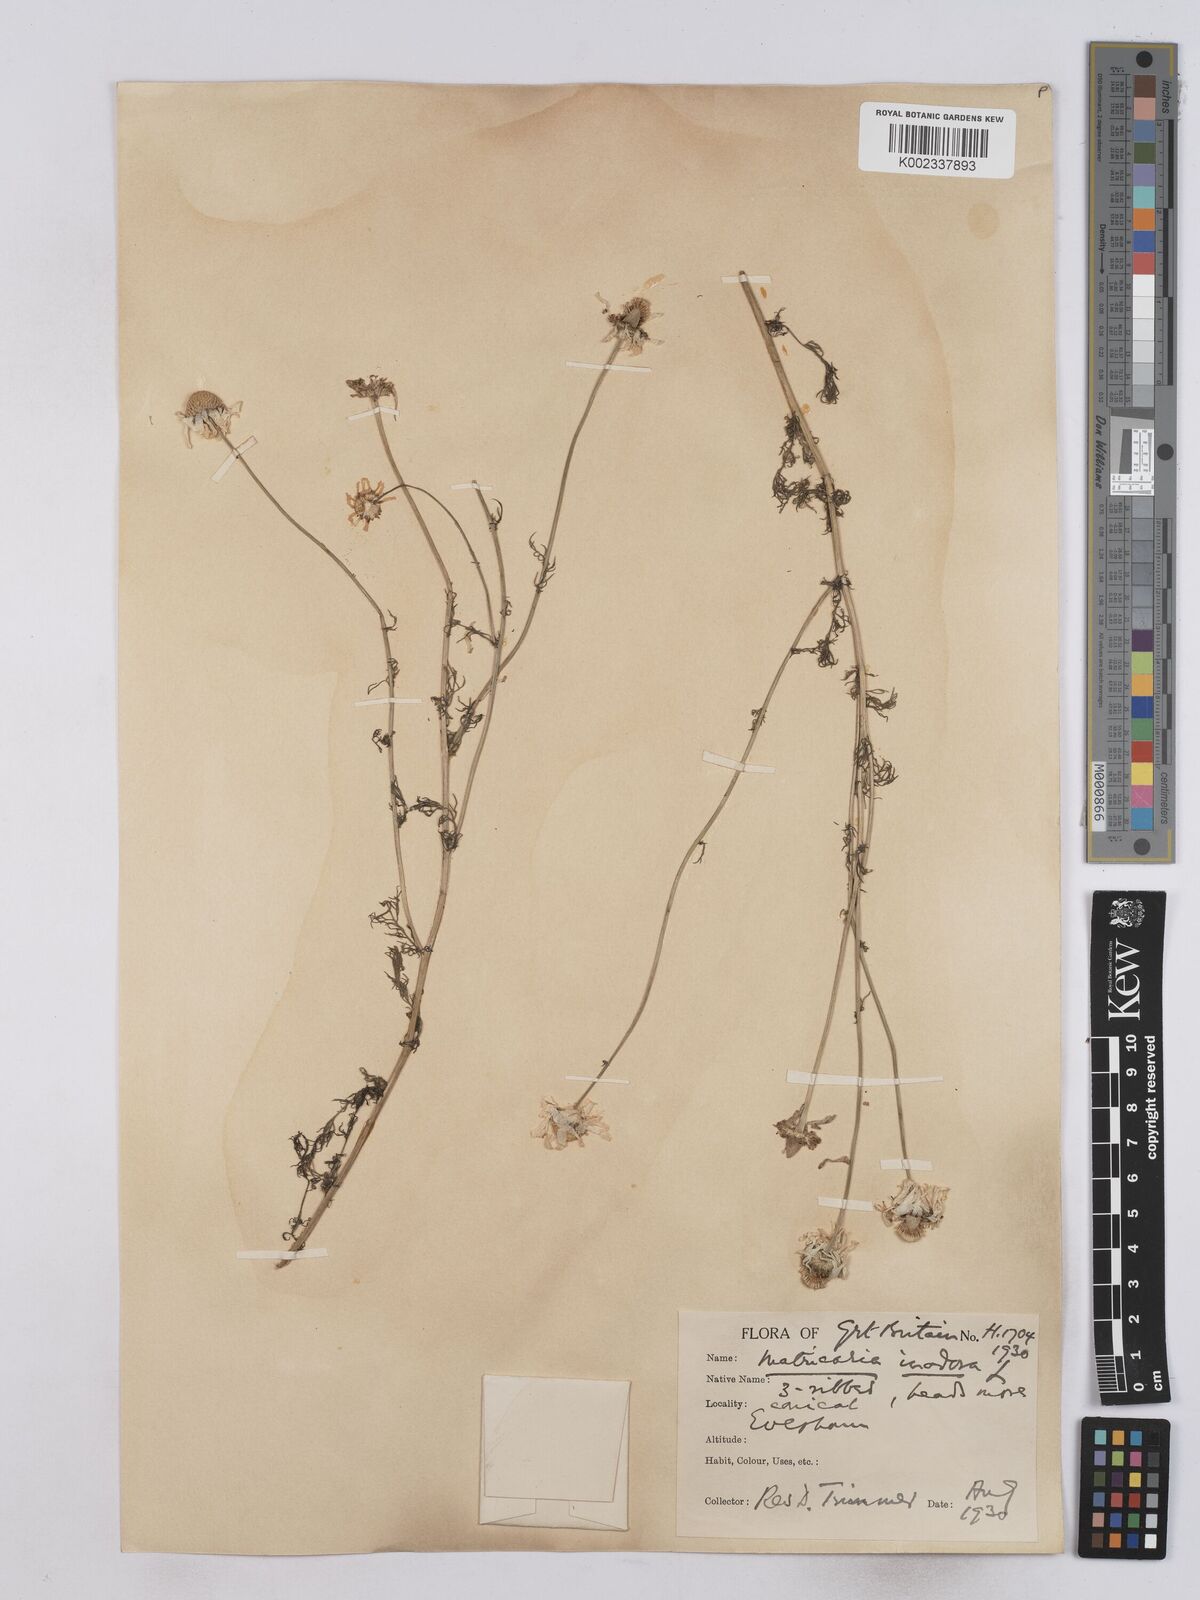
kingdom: Plantae
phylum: Tracheophyta
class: Magnoliopsida
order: Asterales
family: Asteraceae
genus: Matricaria
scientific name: Matricaria discoidea
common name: Disc mayweed
